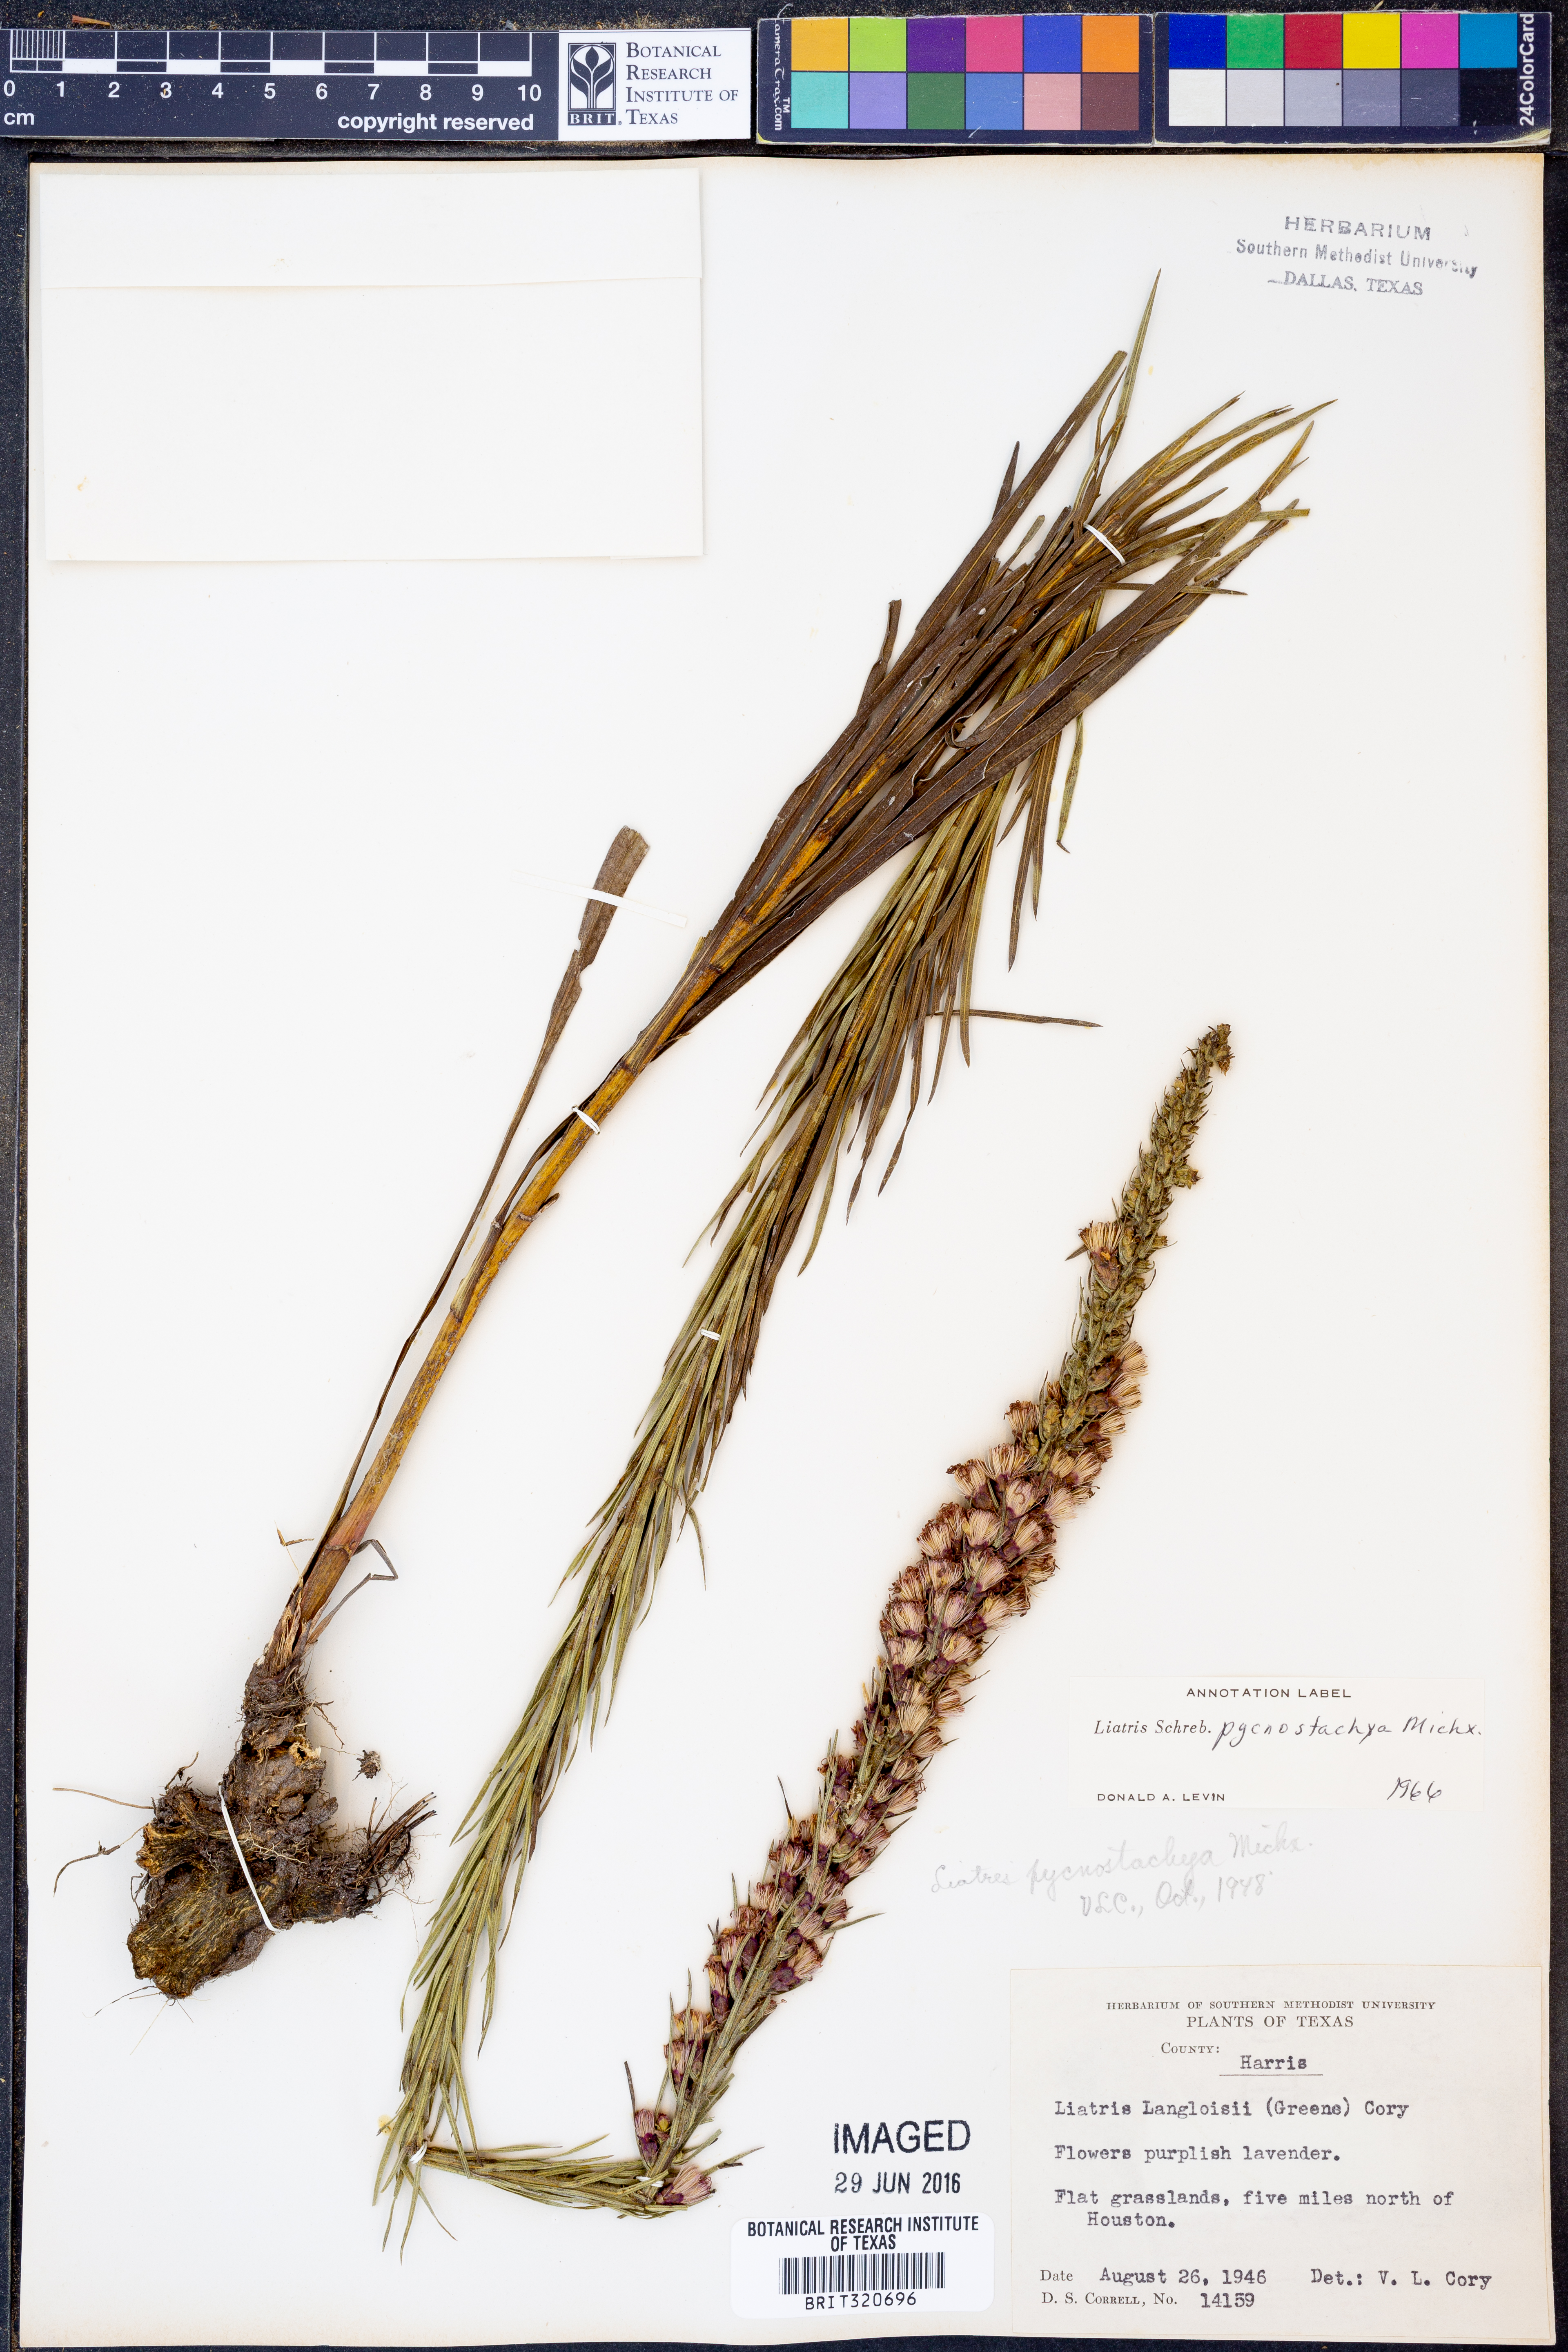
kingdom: Plantae
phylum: Tracheophyta
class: Magnoliopsida
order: Asterales
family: Asteraceae
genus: Liatris
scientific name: Liatris pycnostachya
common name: Cattail gayfeather
